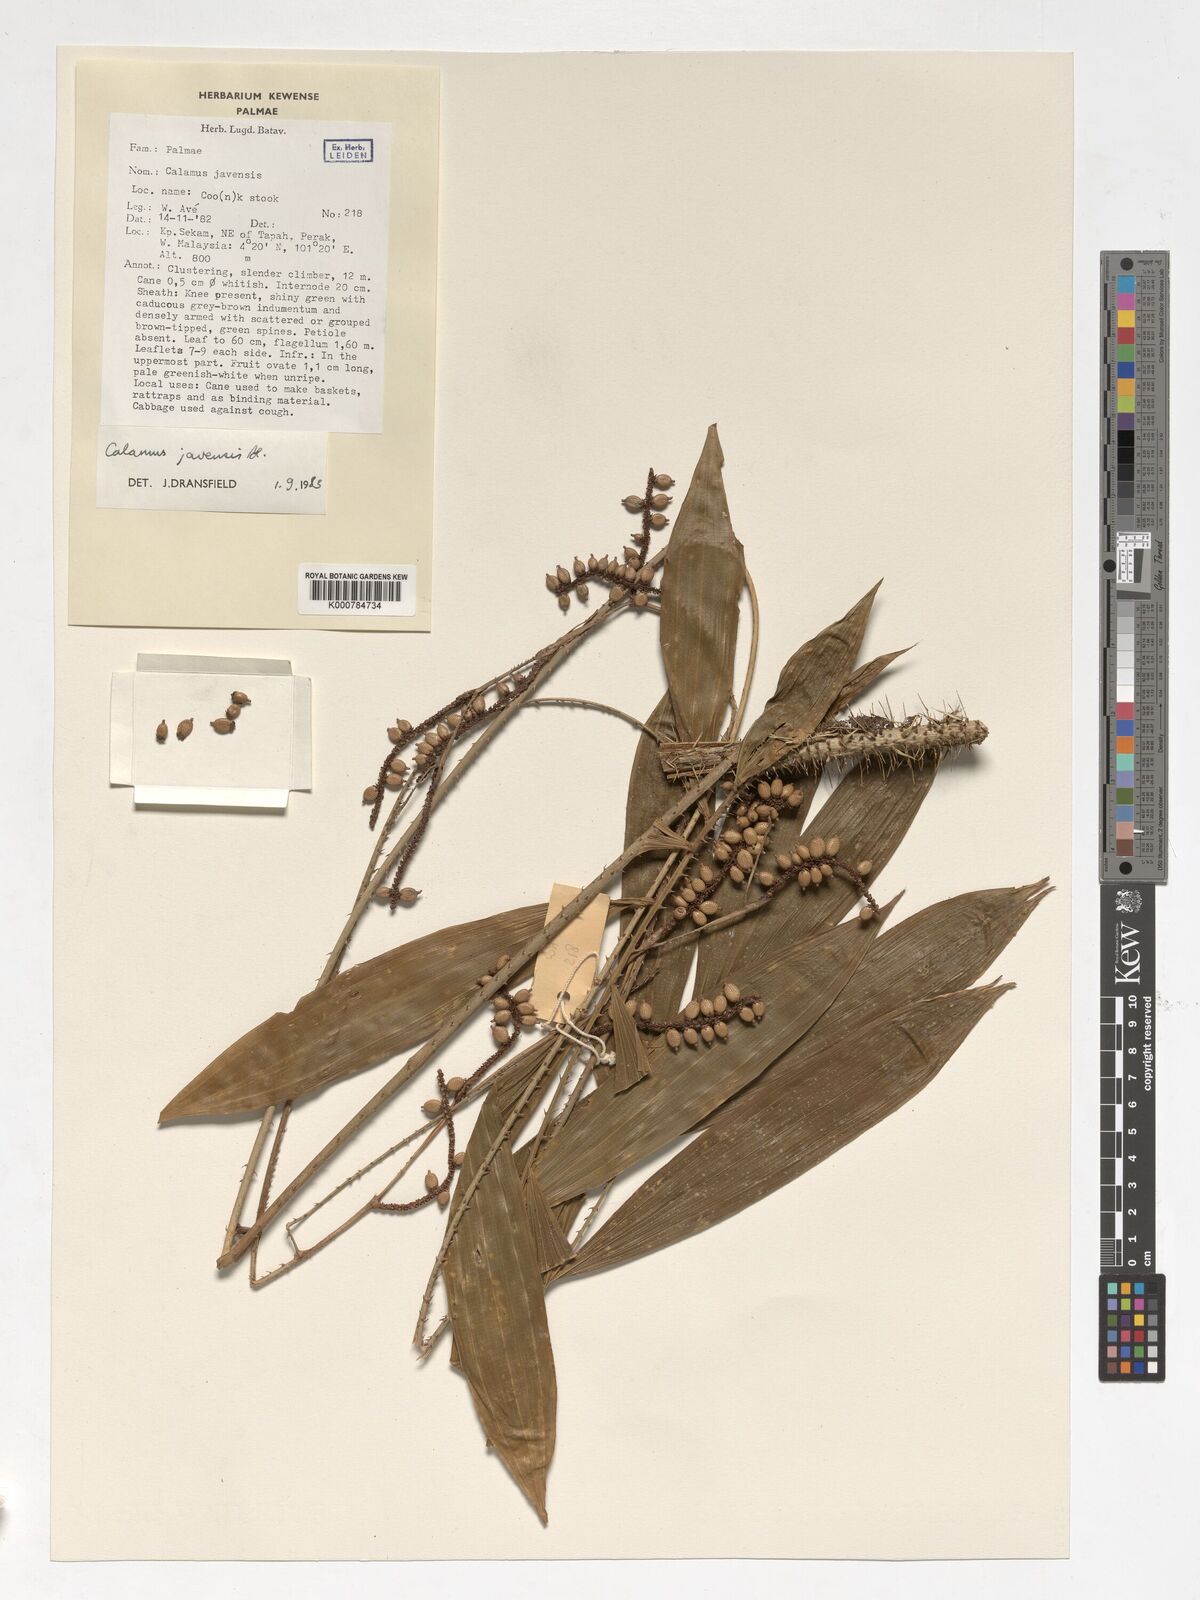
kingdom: Plantae
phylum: Tracheophyta
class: Liliopsida
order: Arecales
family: Arecaceae
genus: Calamus
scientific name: Calamus javensis
